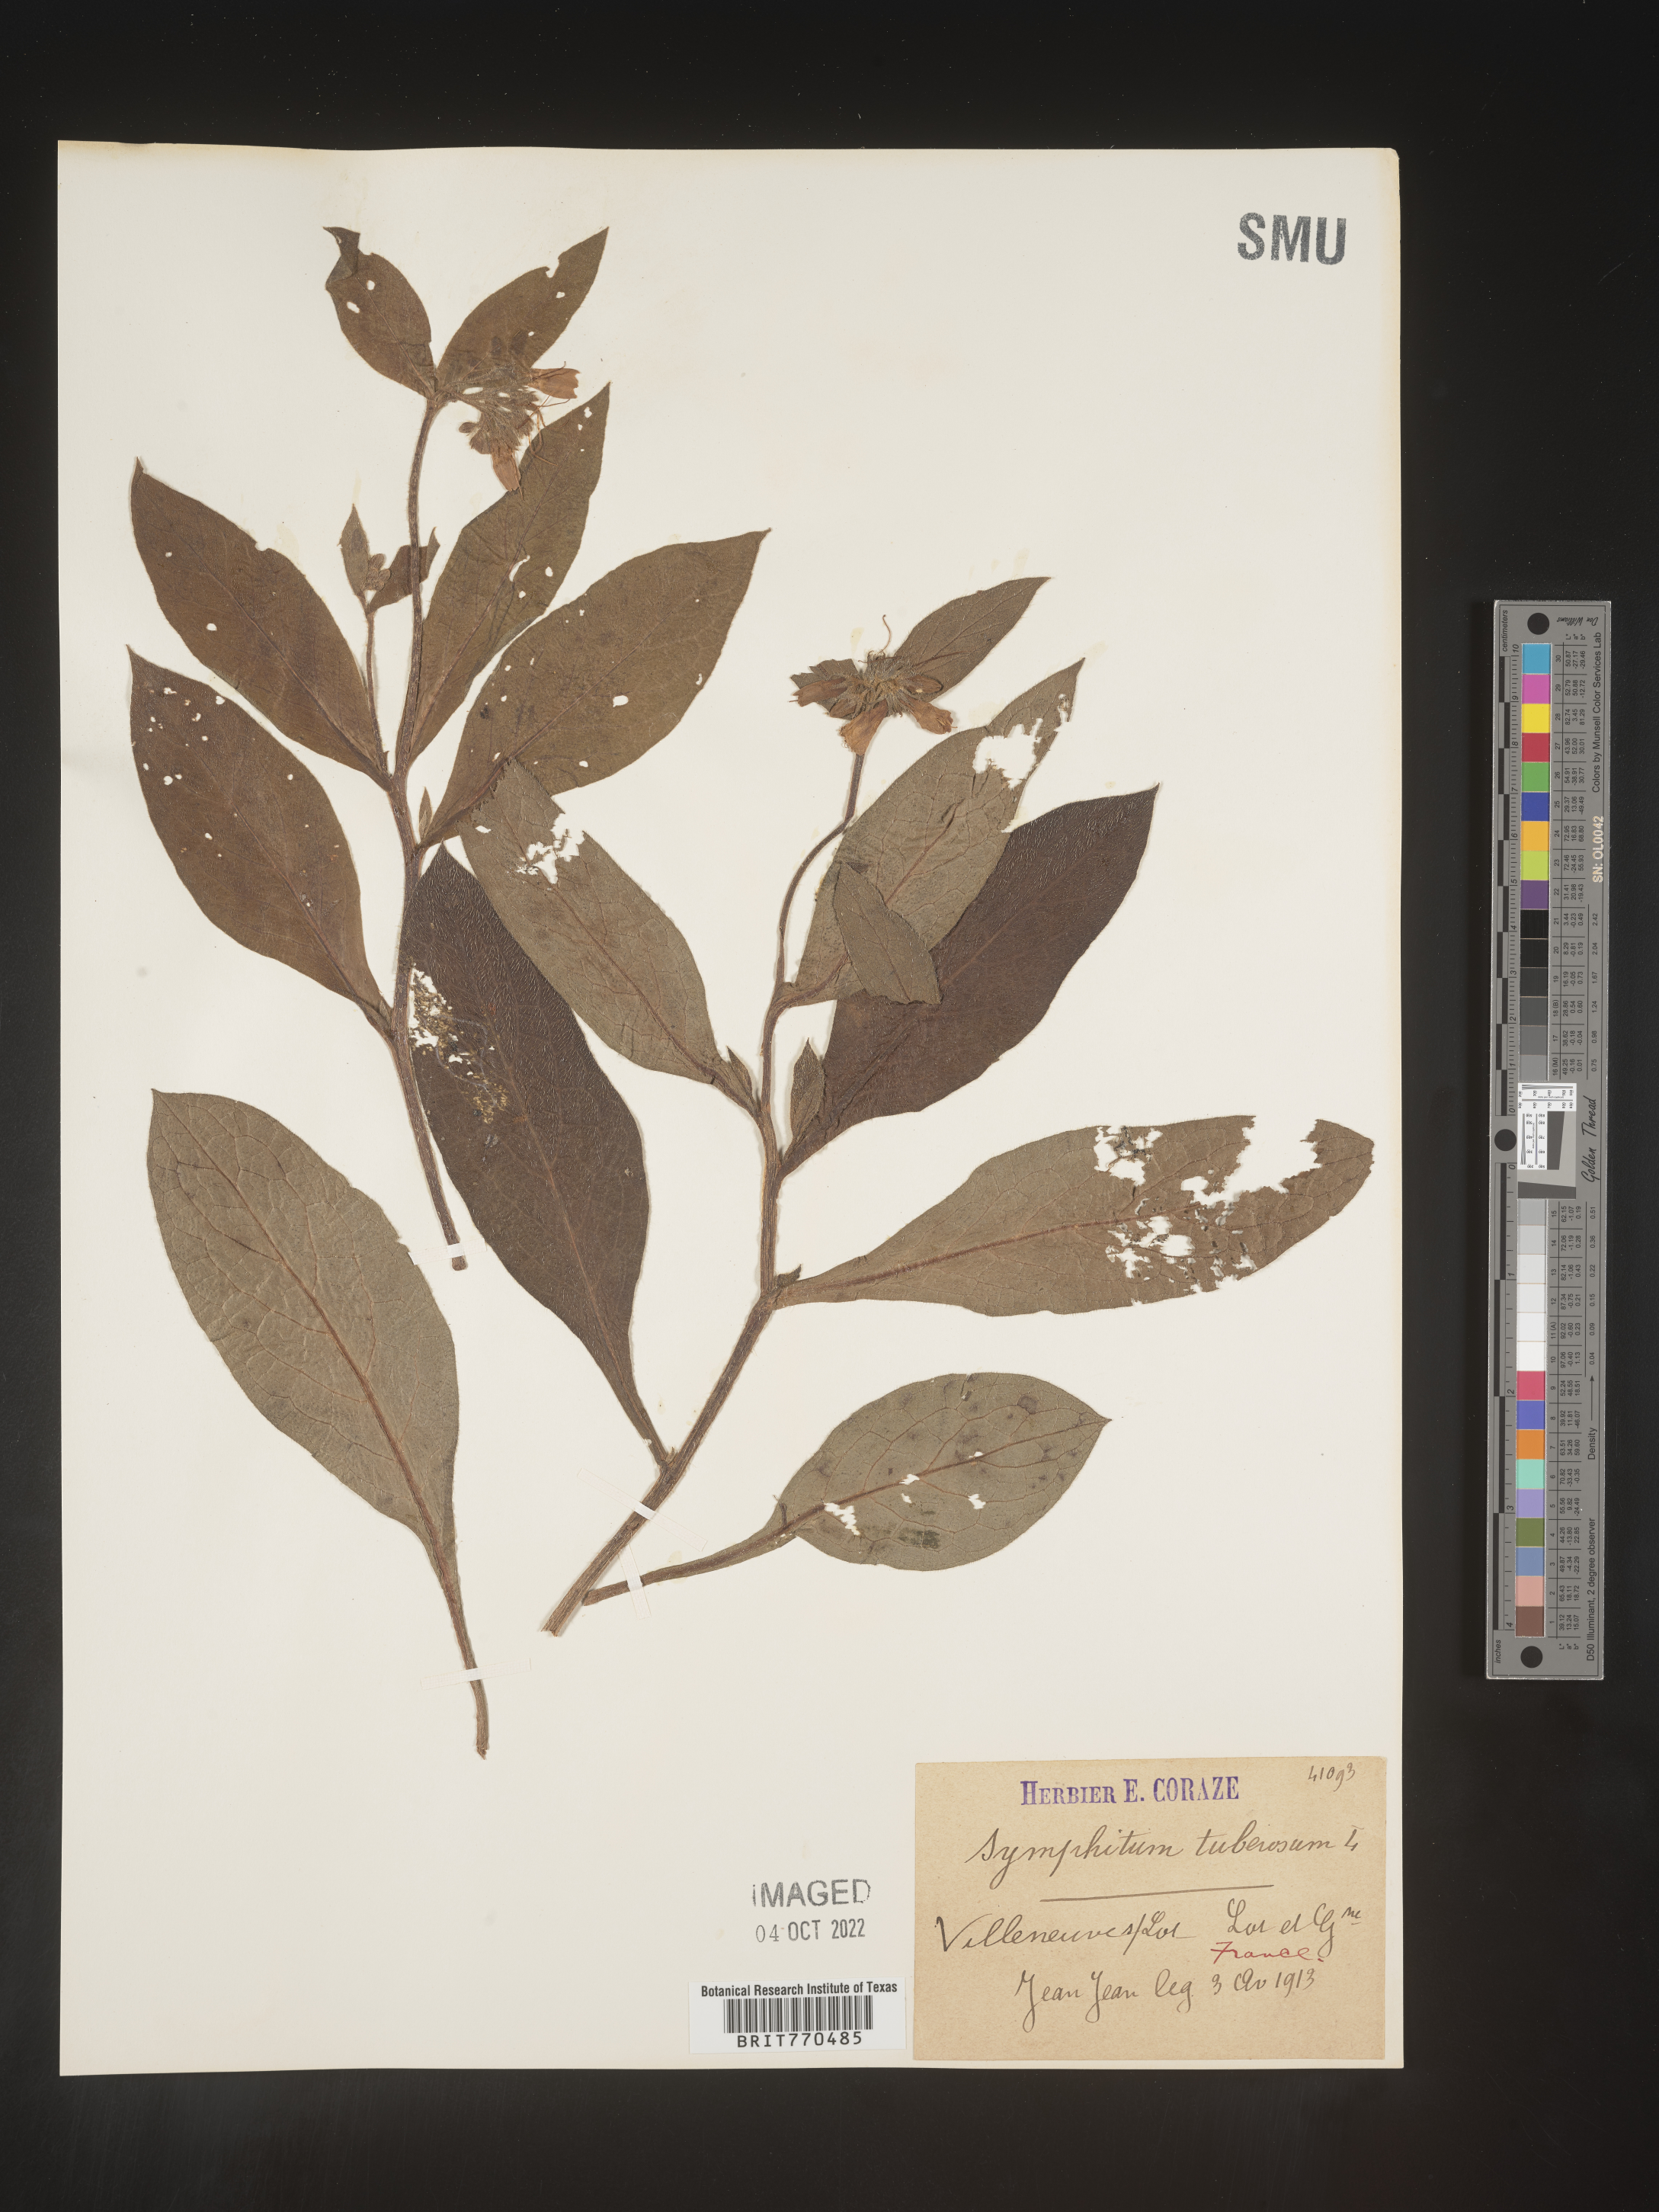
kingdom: Plantae
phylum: Tracheophyta
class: Magnoliopsida
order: Boraginales
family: Boraginaceae
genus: Symphytum
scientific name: Symphytum
